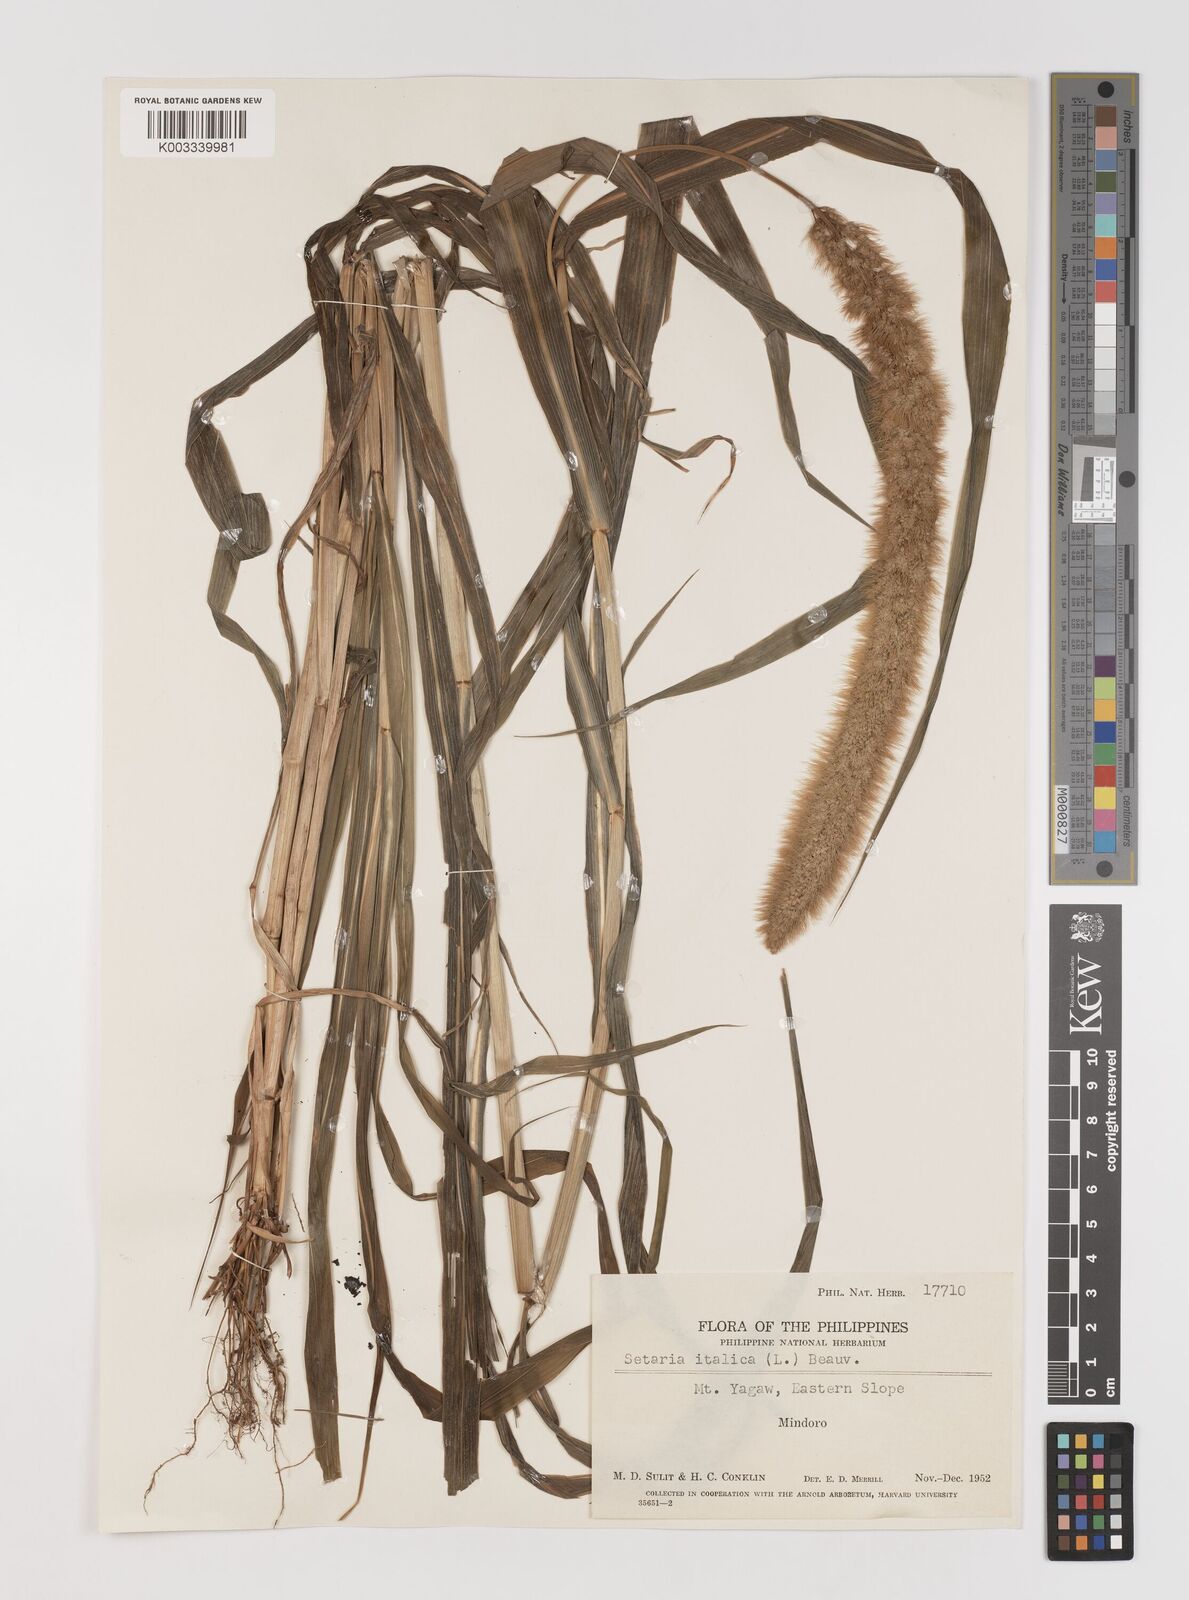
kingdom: Plantae
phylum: Tracheophyta
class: Liliopsida
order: Poales
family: Poaceae
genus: Setaria
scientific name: Setaria italica
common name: Foxtail bristle-grass
